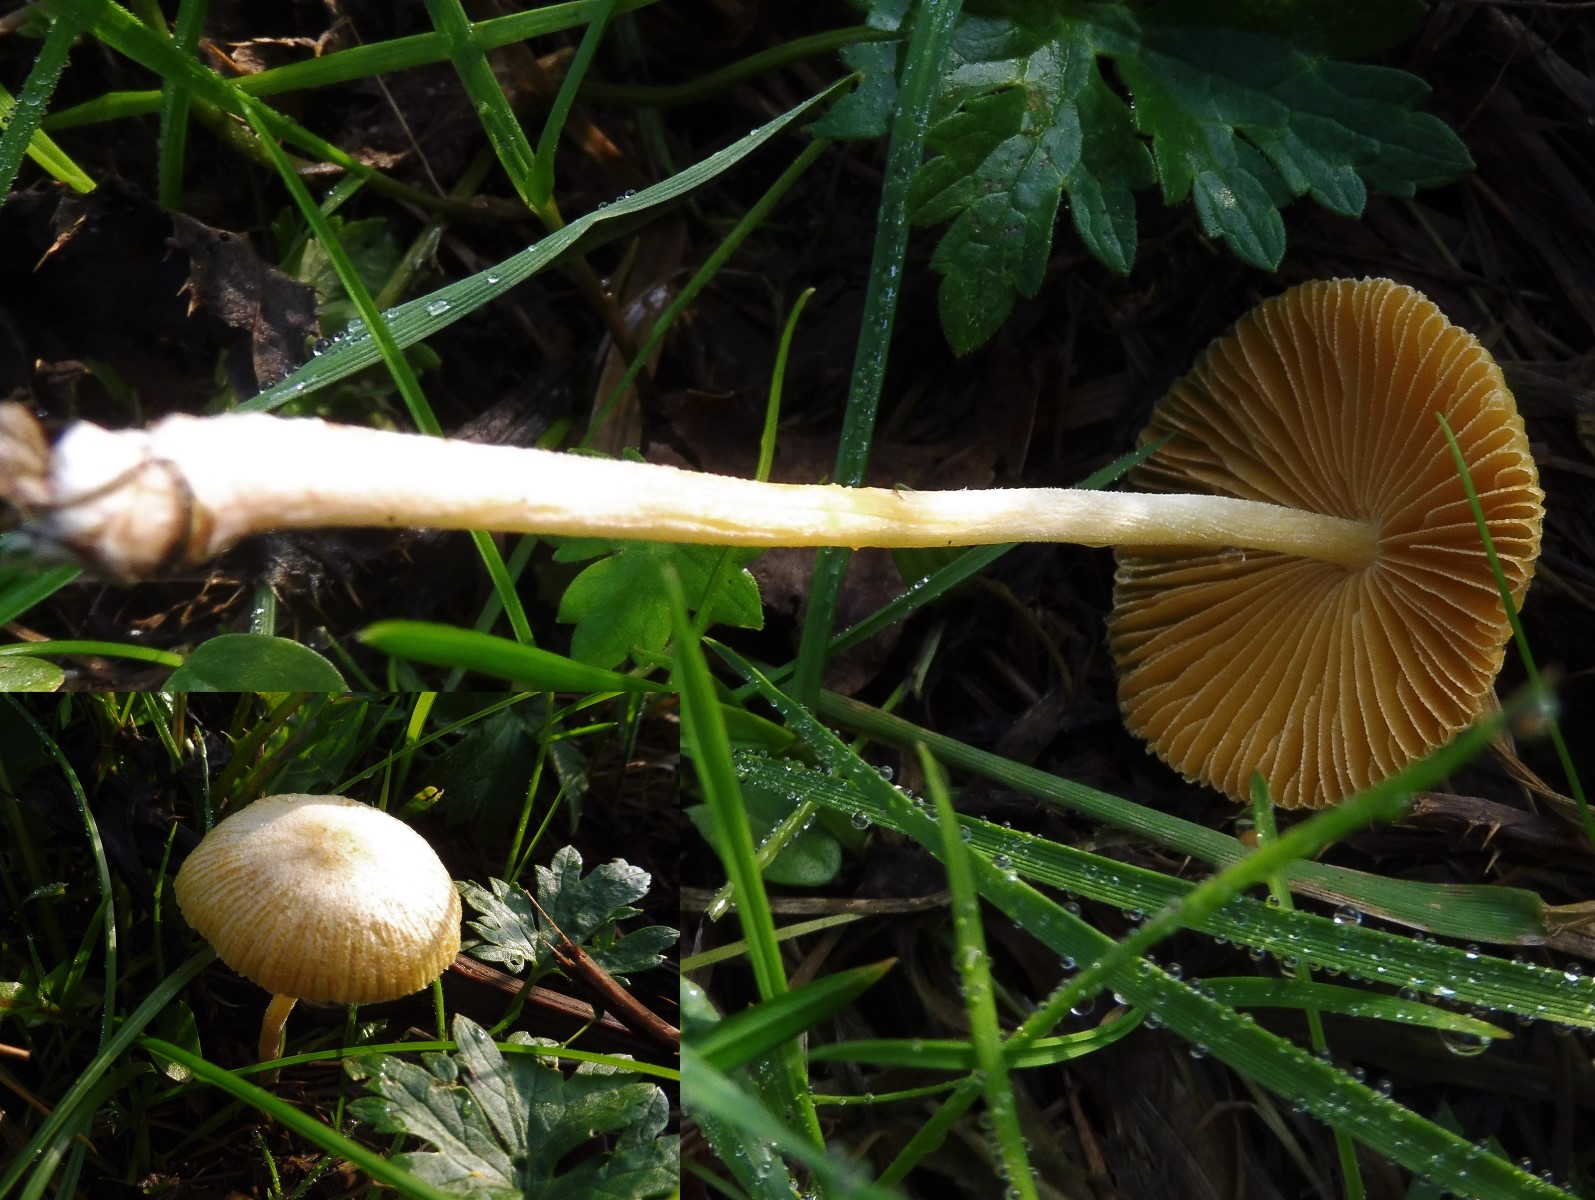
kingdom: Fungi
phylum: Basidiomycota
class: Agaricomycetes
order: Agaricales
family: Bolbitiaceae
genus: Bolbitius
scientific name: Bolbitius titubans
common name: almindelig gulhat
